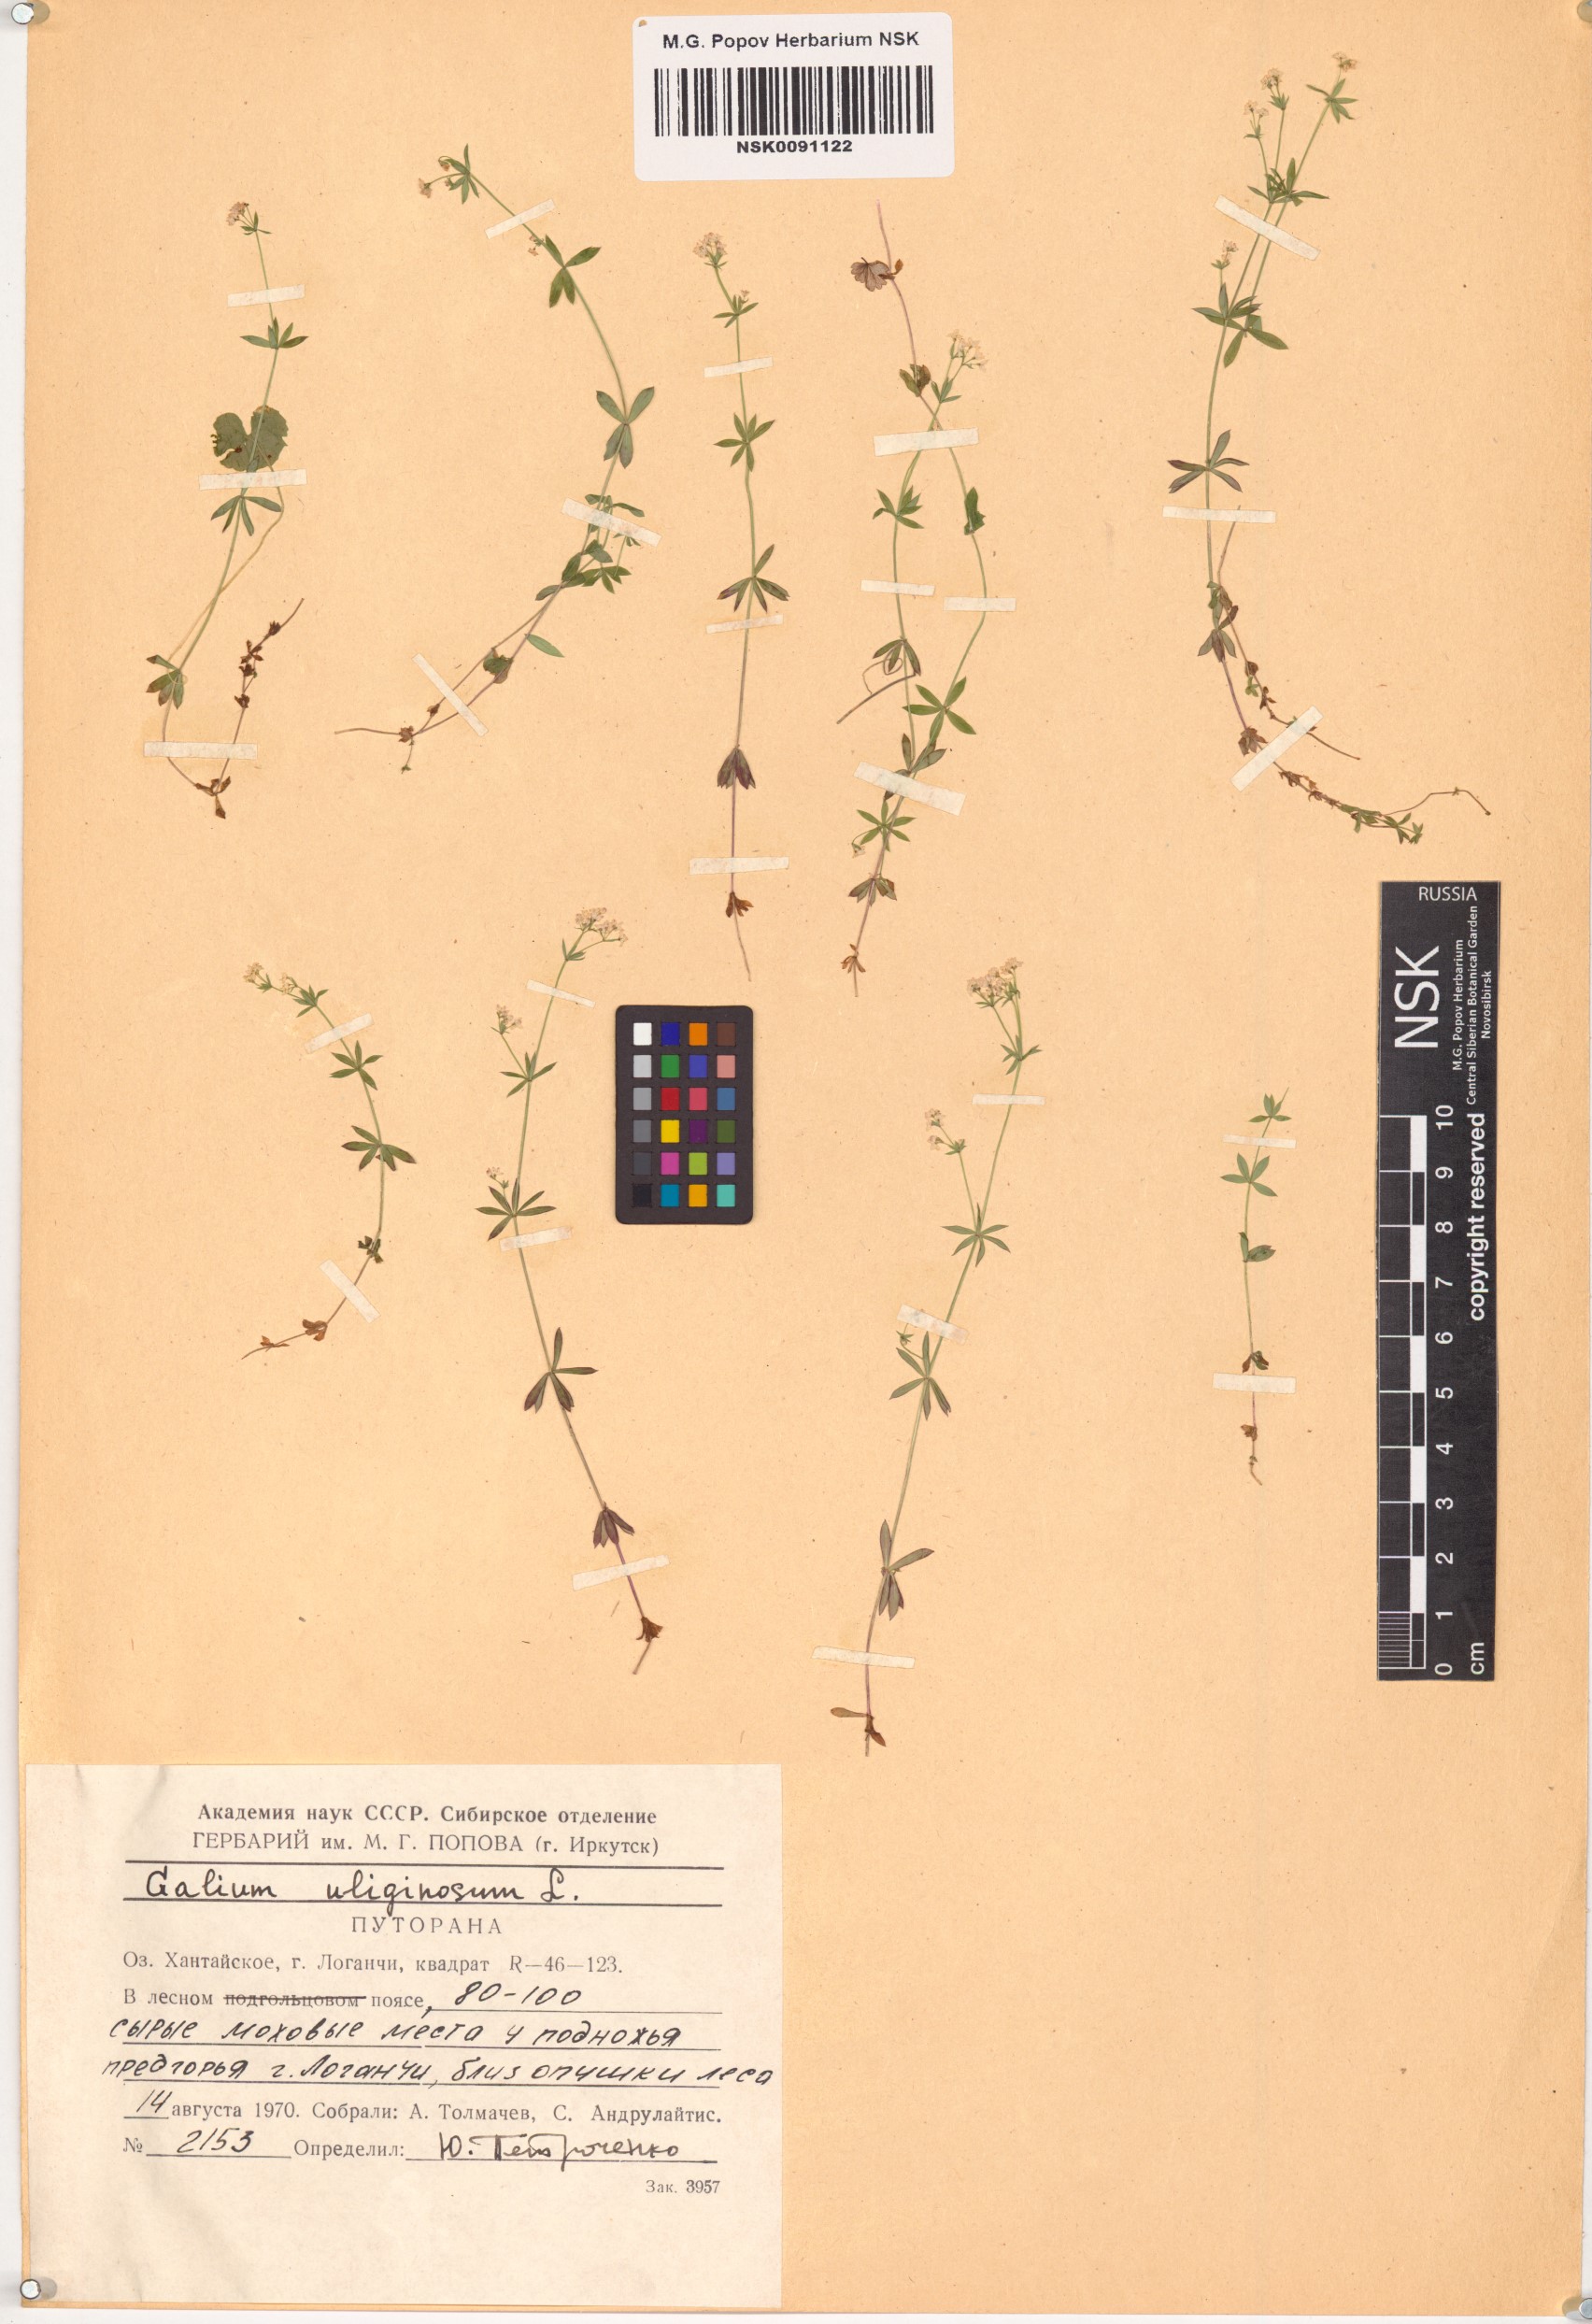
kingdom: Plantae
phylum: Tracheophyta
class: Magnoliopsida
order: Gentianales
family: Rubiaceae
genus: Galium
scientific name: Galium uliginosum
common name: Fen bedstraw
